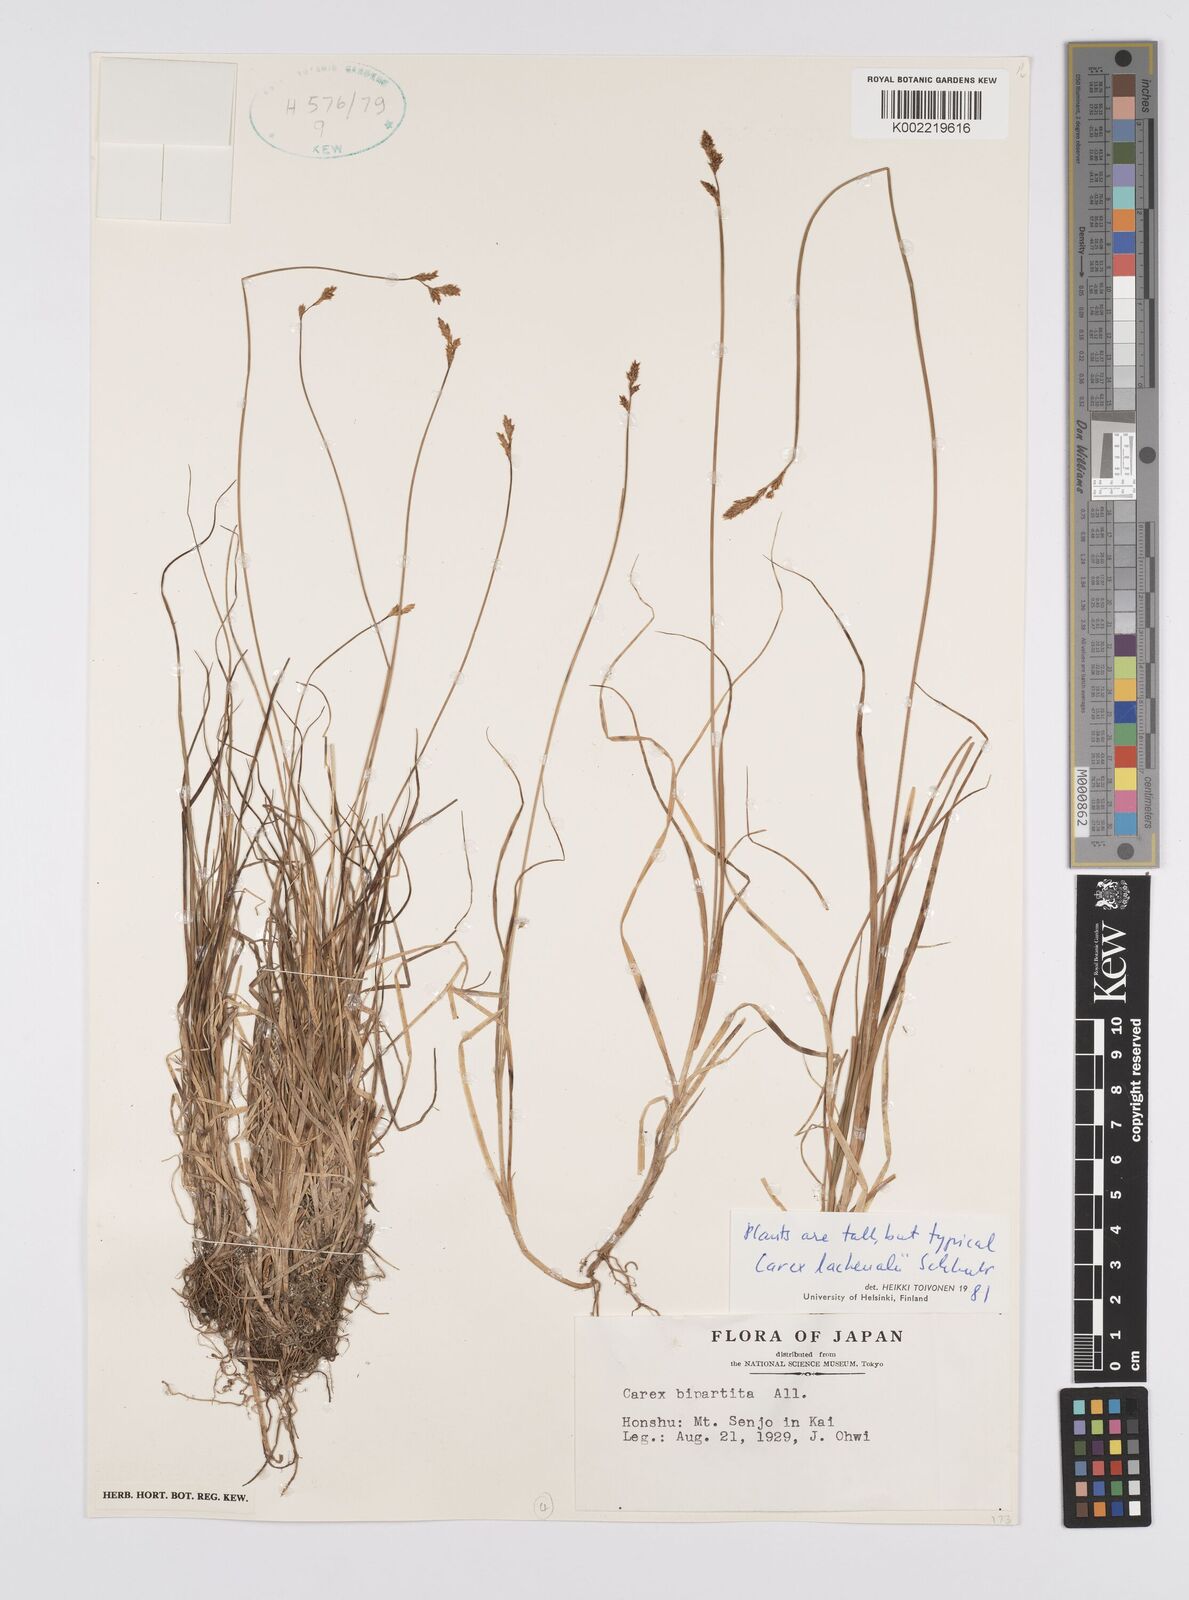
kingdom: Plantae
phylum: Tracheophyta
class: Liliopsida
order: Poales
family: Cyperaceae
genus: Carex
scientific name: Carex simpliciuscula
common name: Simple bog sedge
